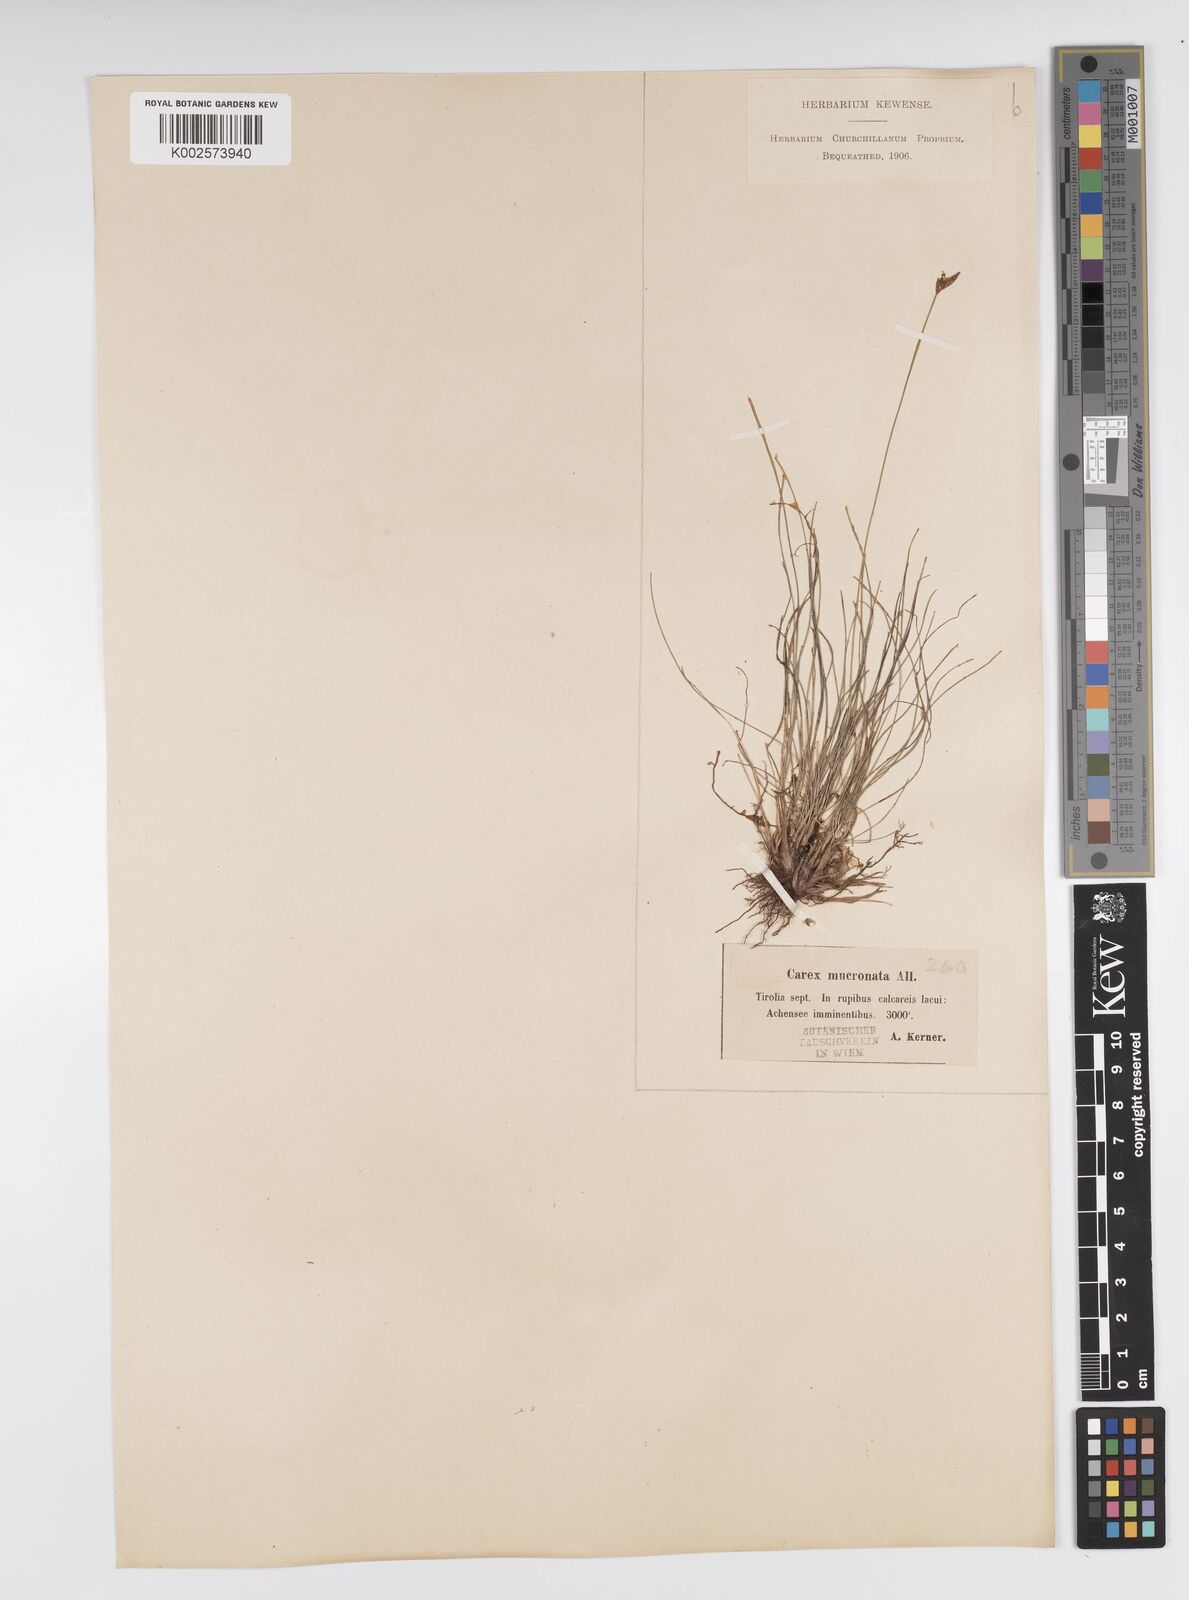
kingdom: Plantae
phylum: Tracheophyta
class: Liliopsida
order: Poales
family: Cyperaceae
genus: Carex
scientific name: Carex mucronata
